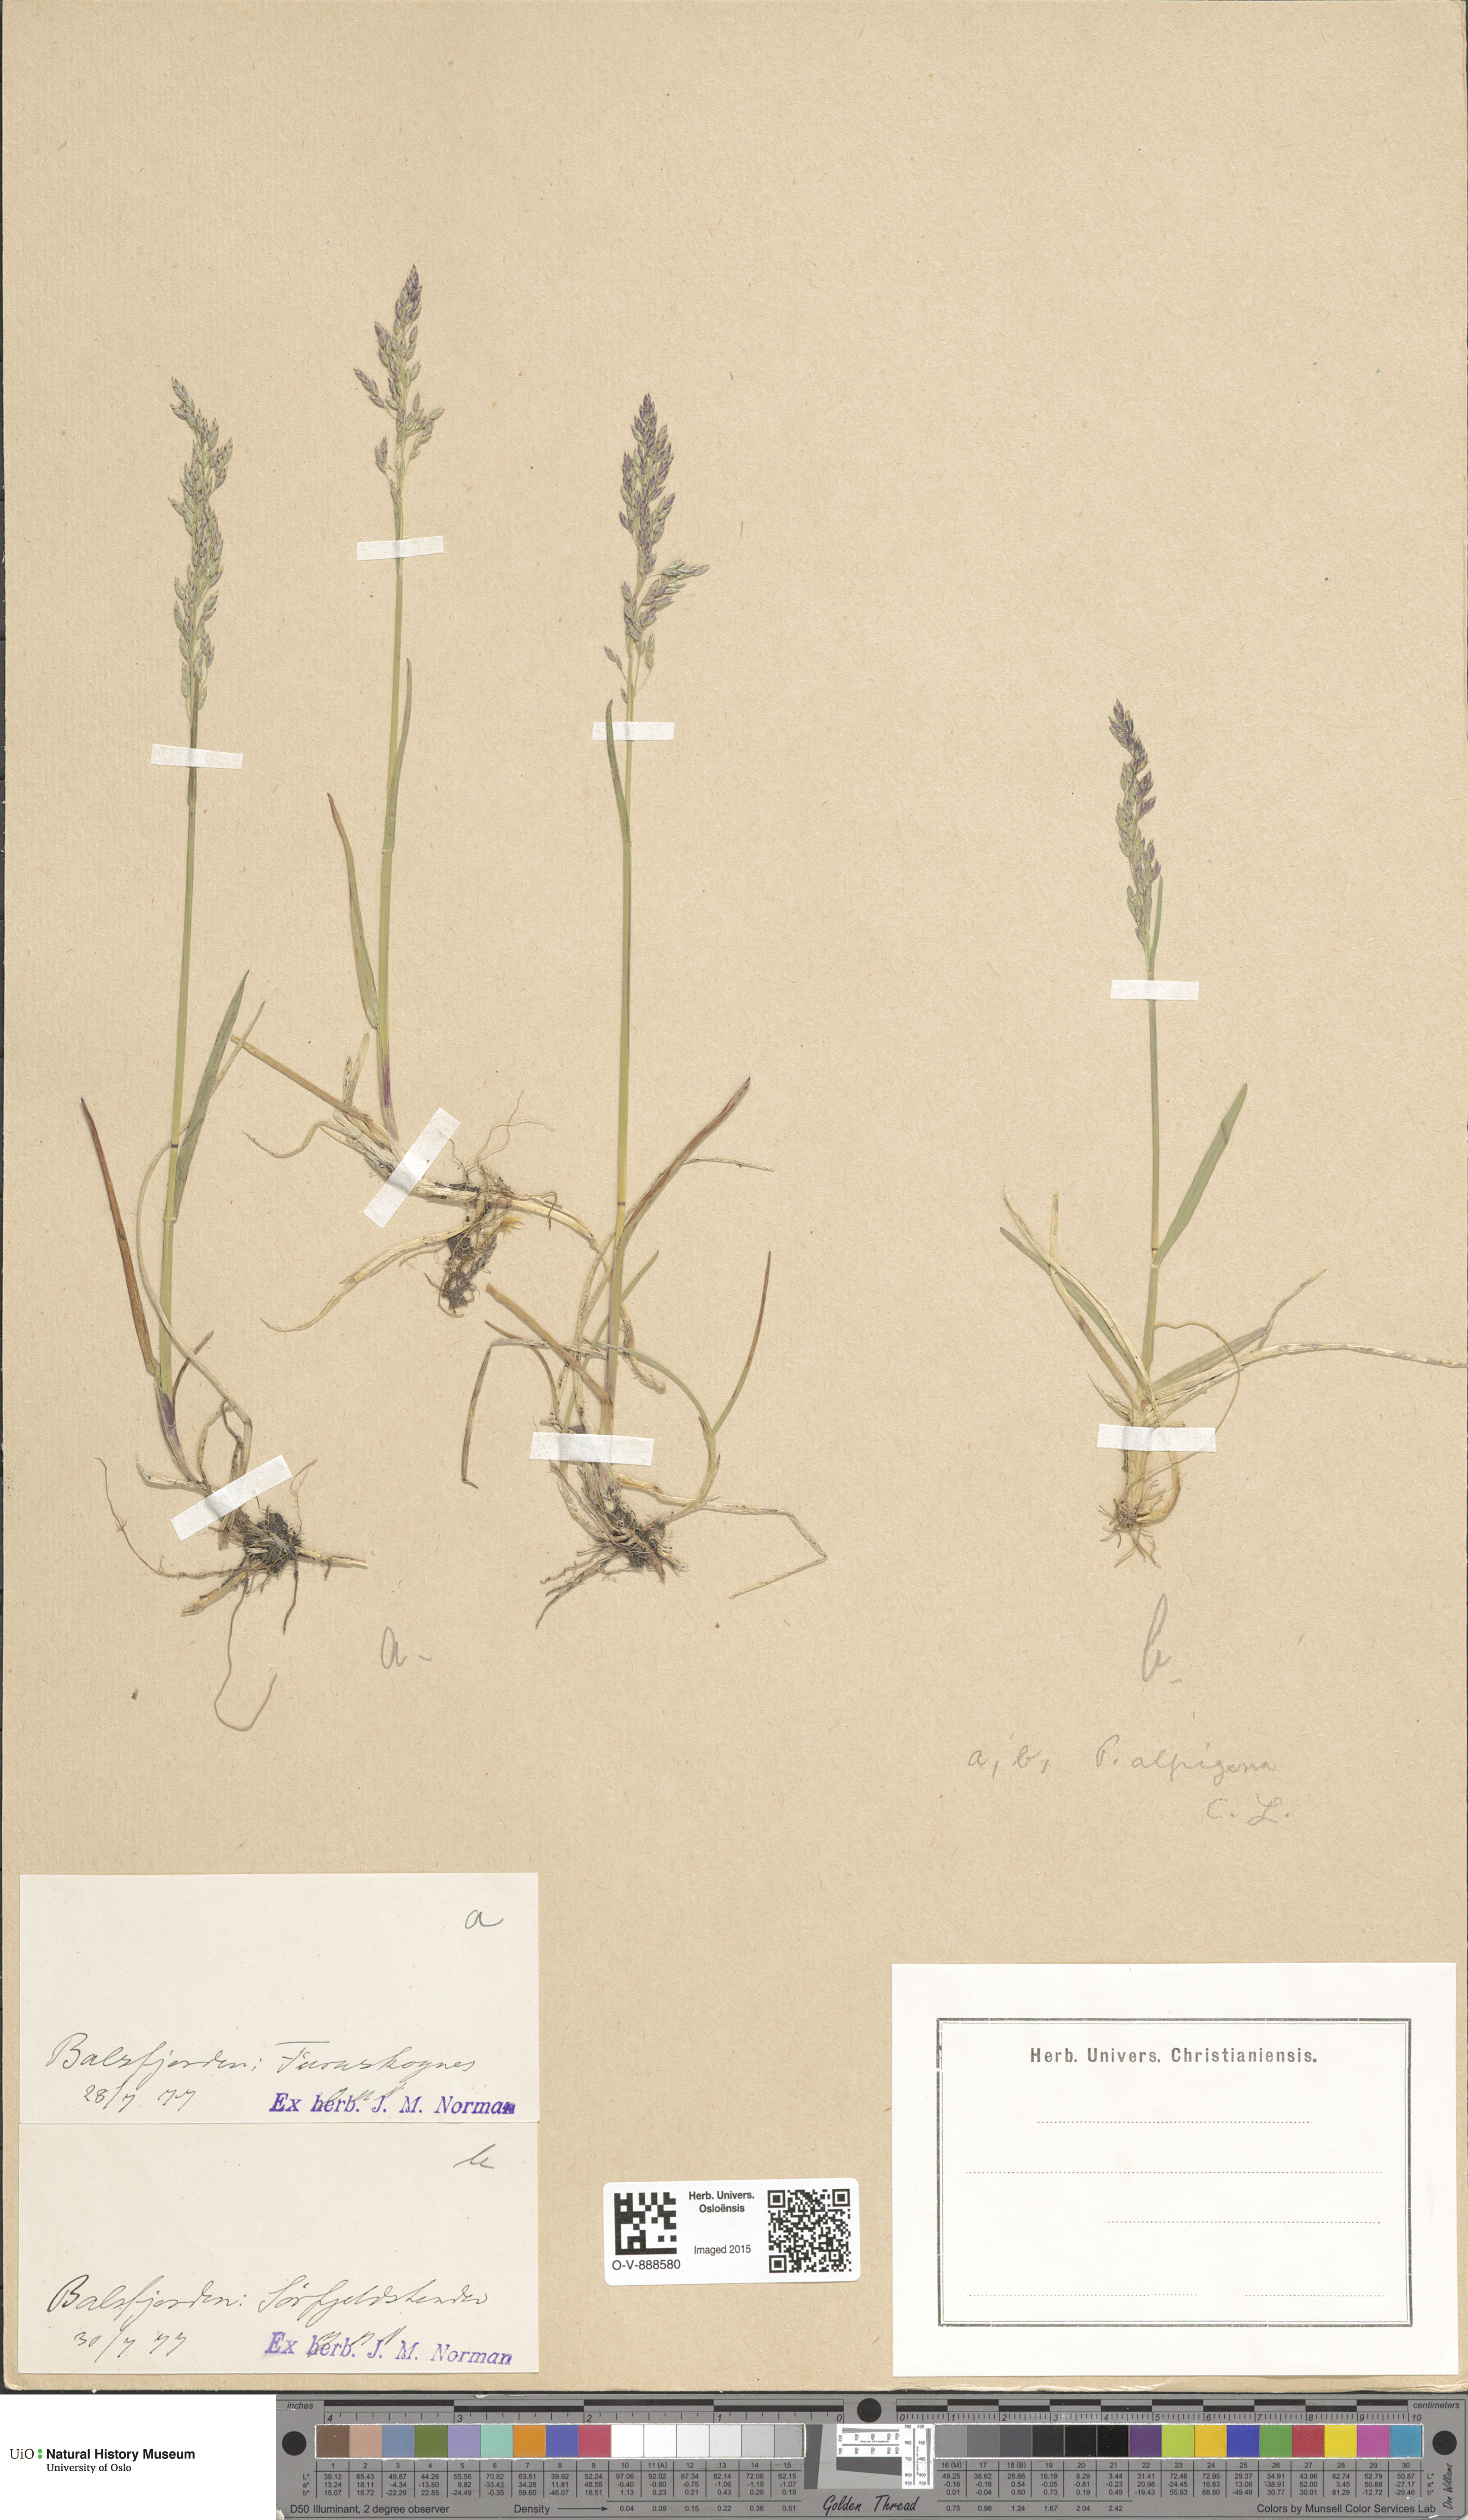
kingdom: Plantae
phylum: Tracheophyta
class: Liliopsida
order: Poales
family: Poaceae
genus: Poa
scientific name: Poa alpigena
